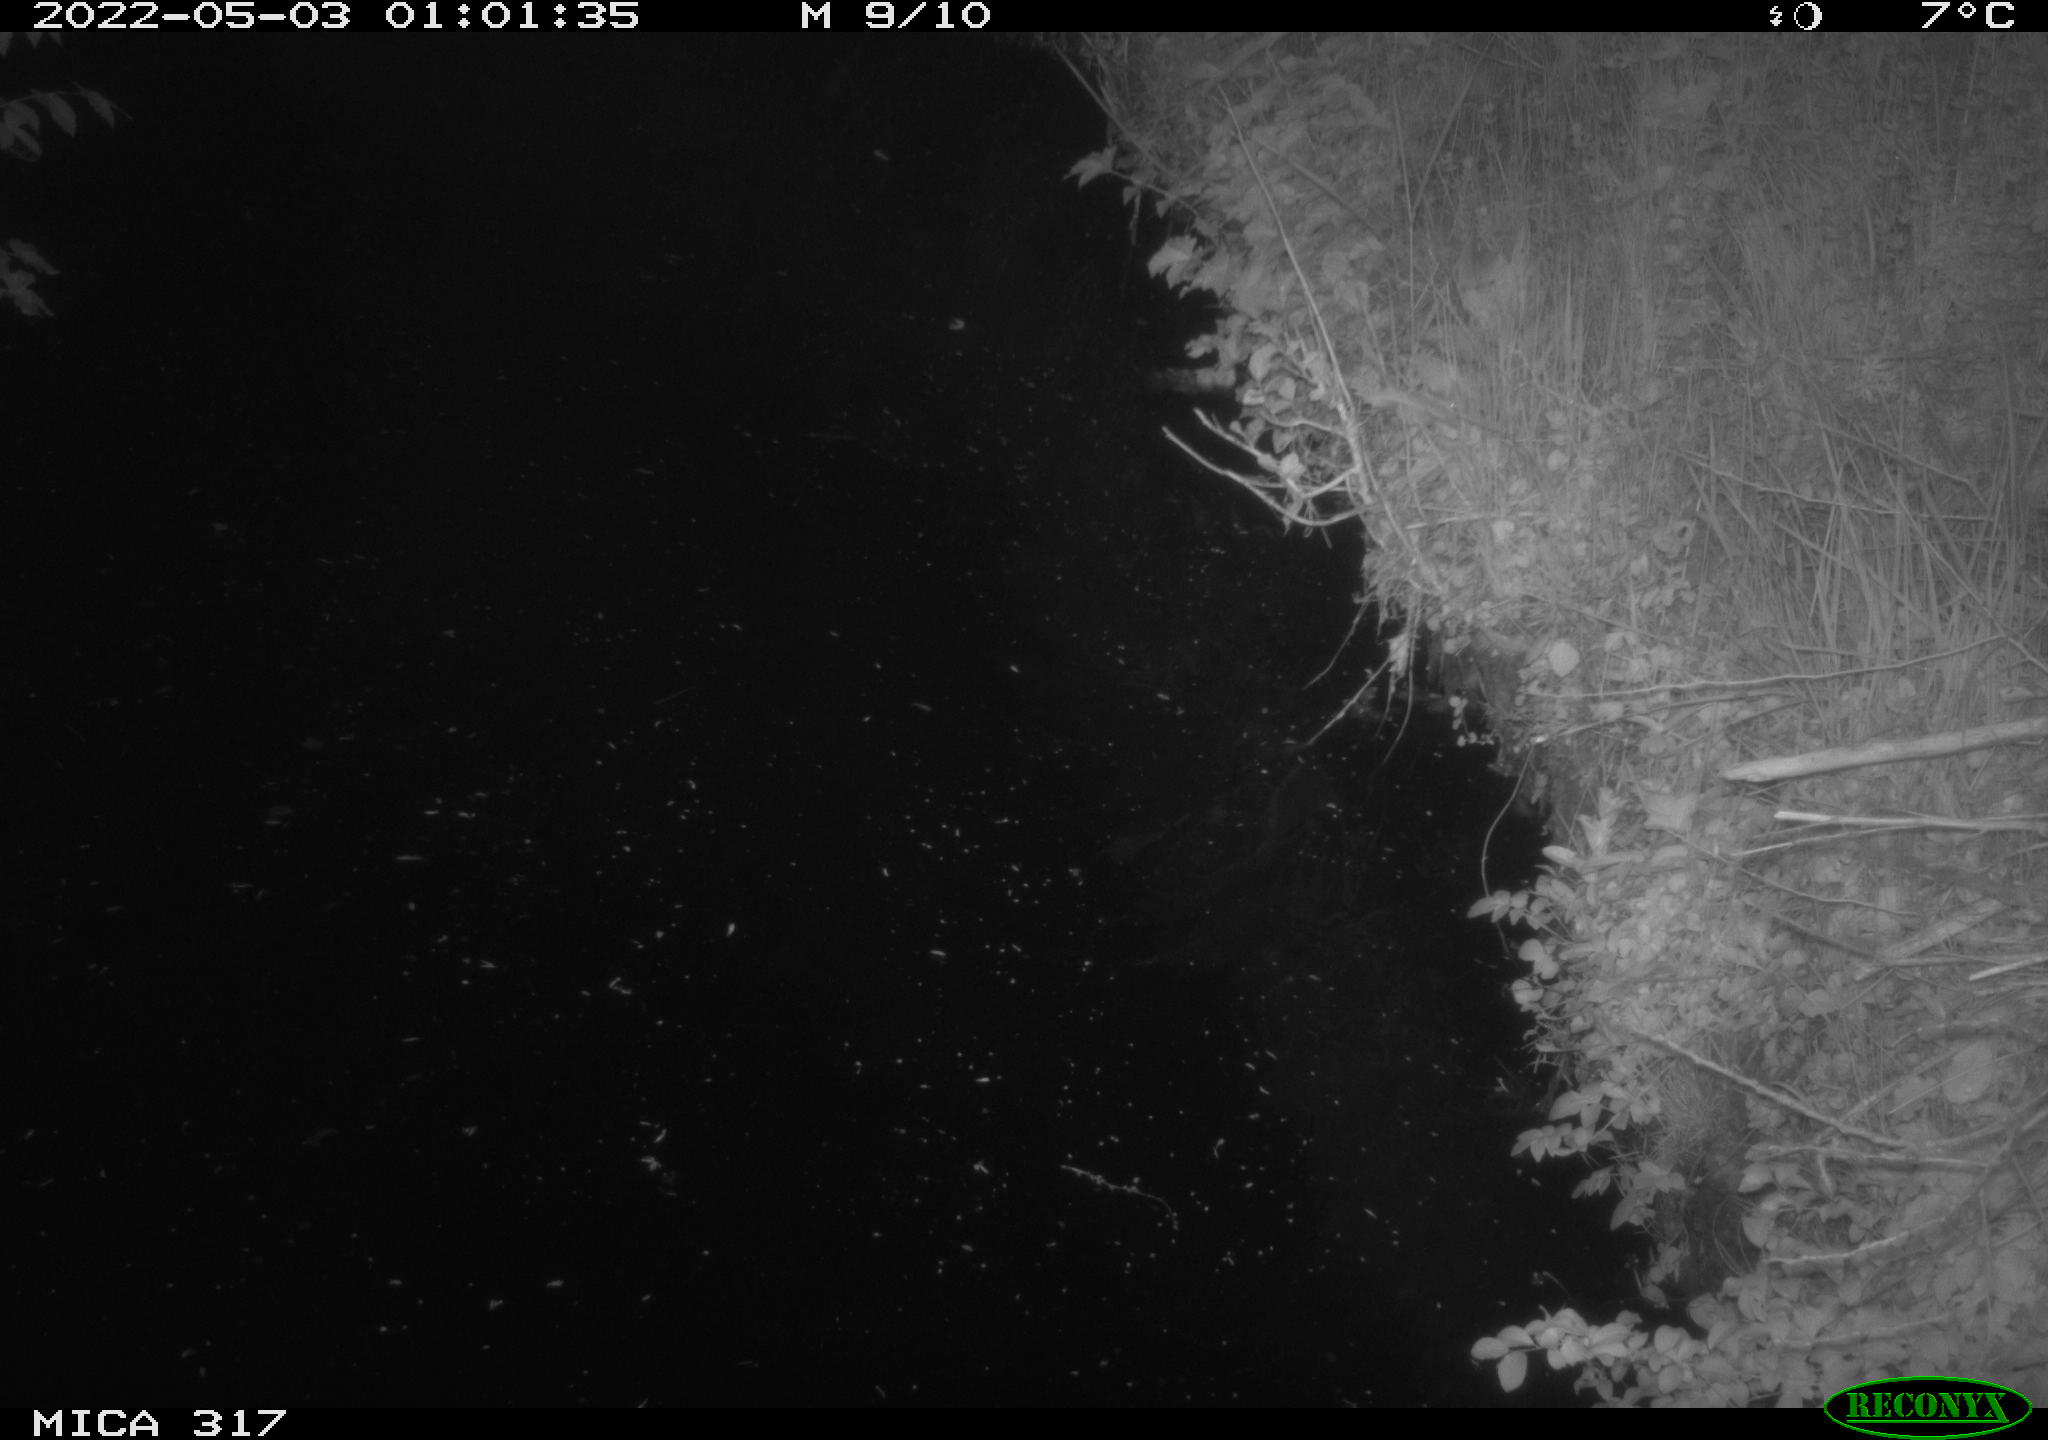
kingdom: Animalia
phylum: Chordata
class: Aves
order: Anseriformes
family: Anatidae
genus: Anas
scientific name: Anas platyrhynchos
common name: Mallard
